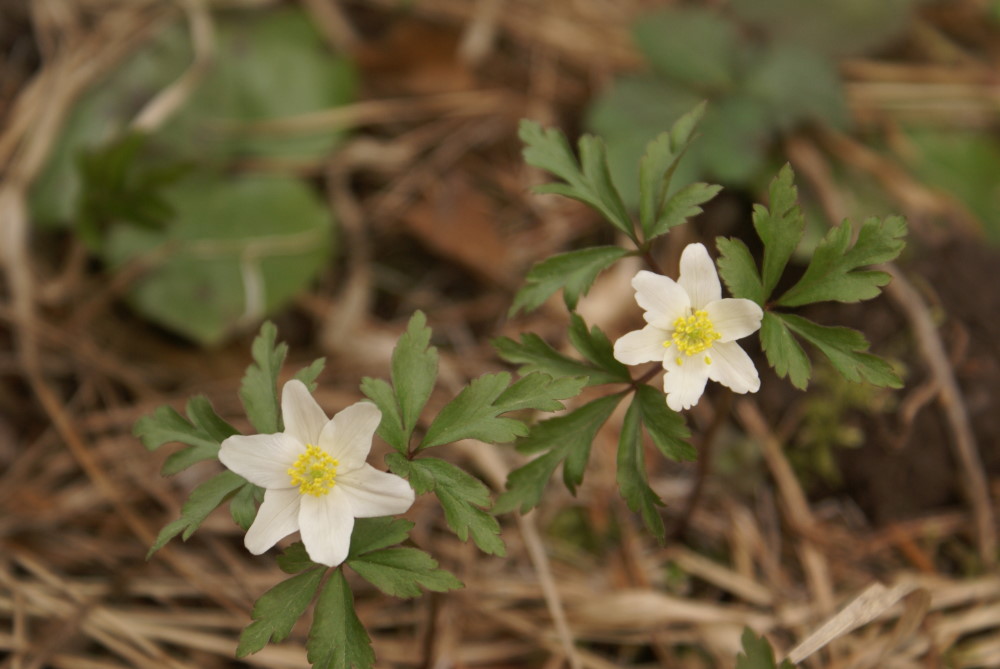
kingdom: Plantae
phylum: Tracheophyta
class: Magnoliopsida
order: Ranunculales
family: Ranunculaceae
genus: Anemone
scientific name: Anemone nemorosa
